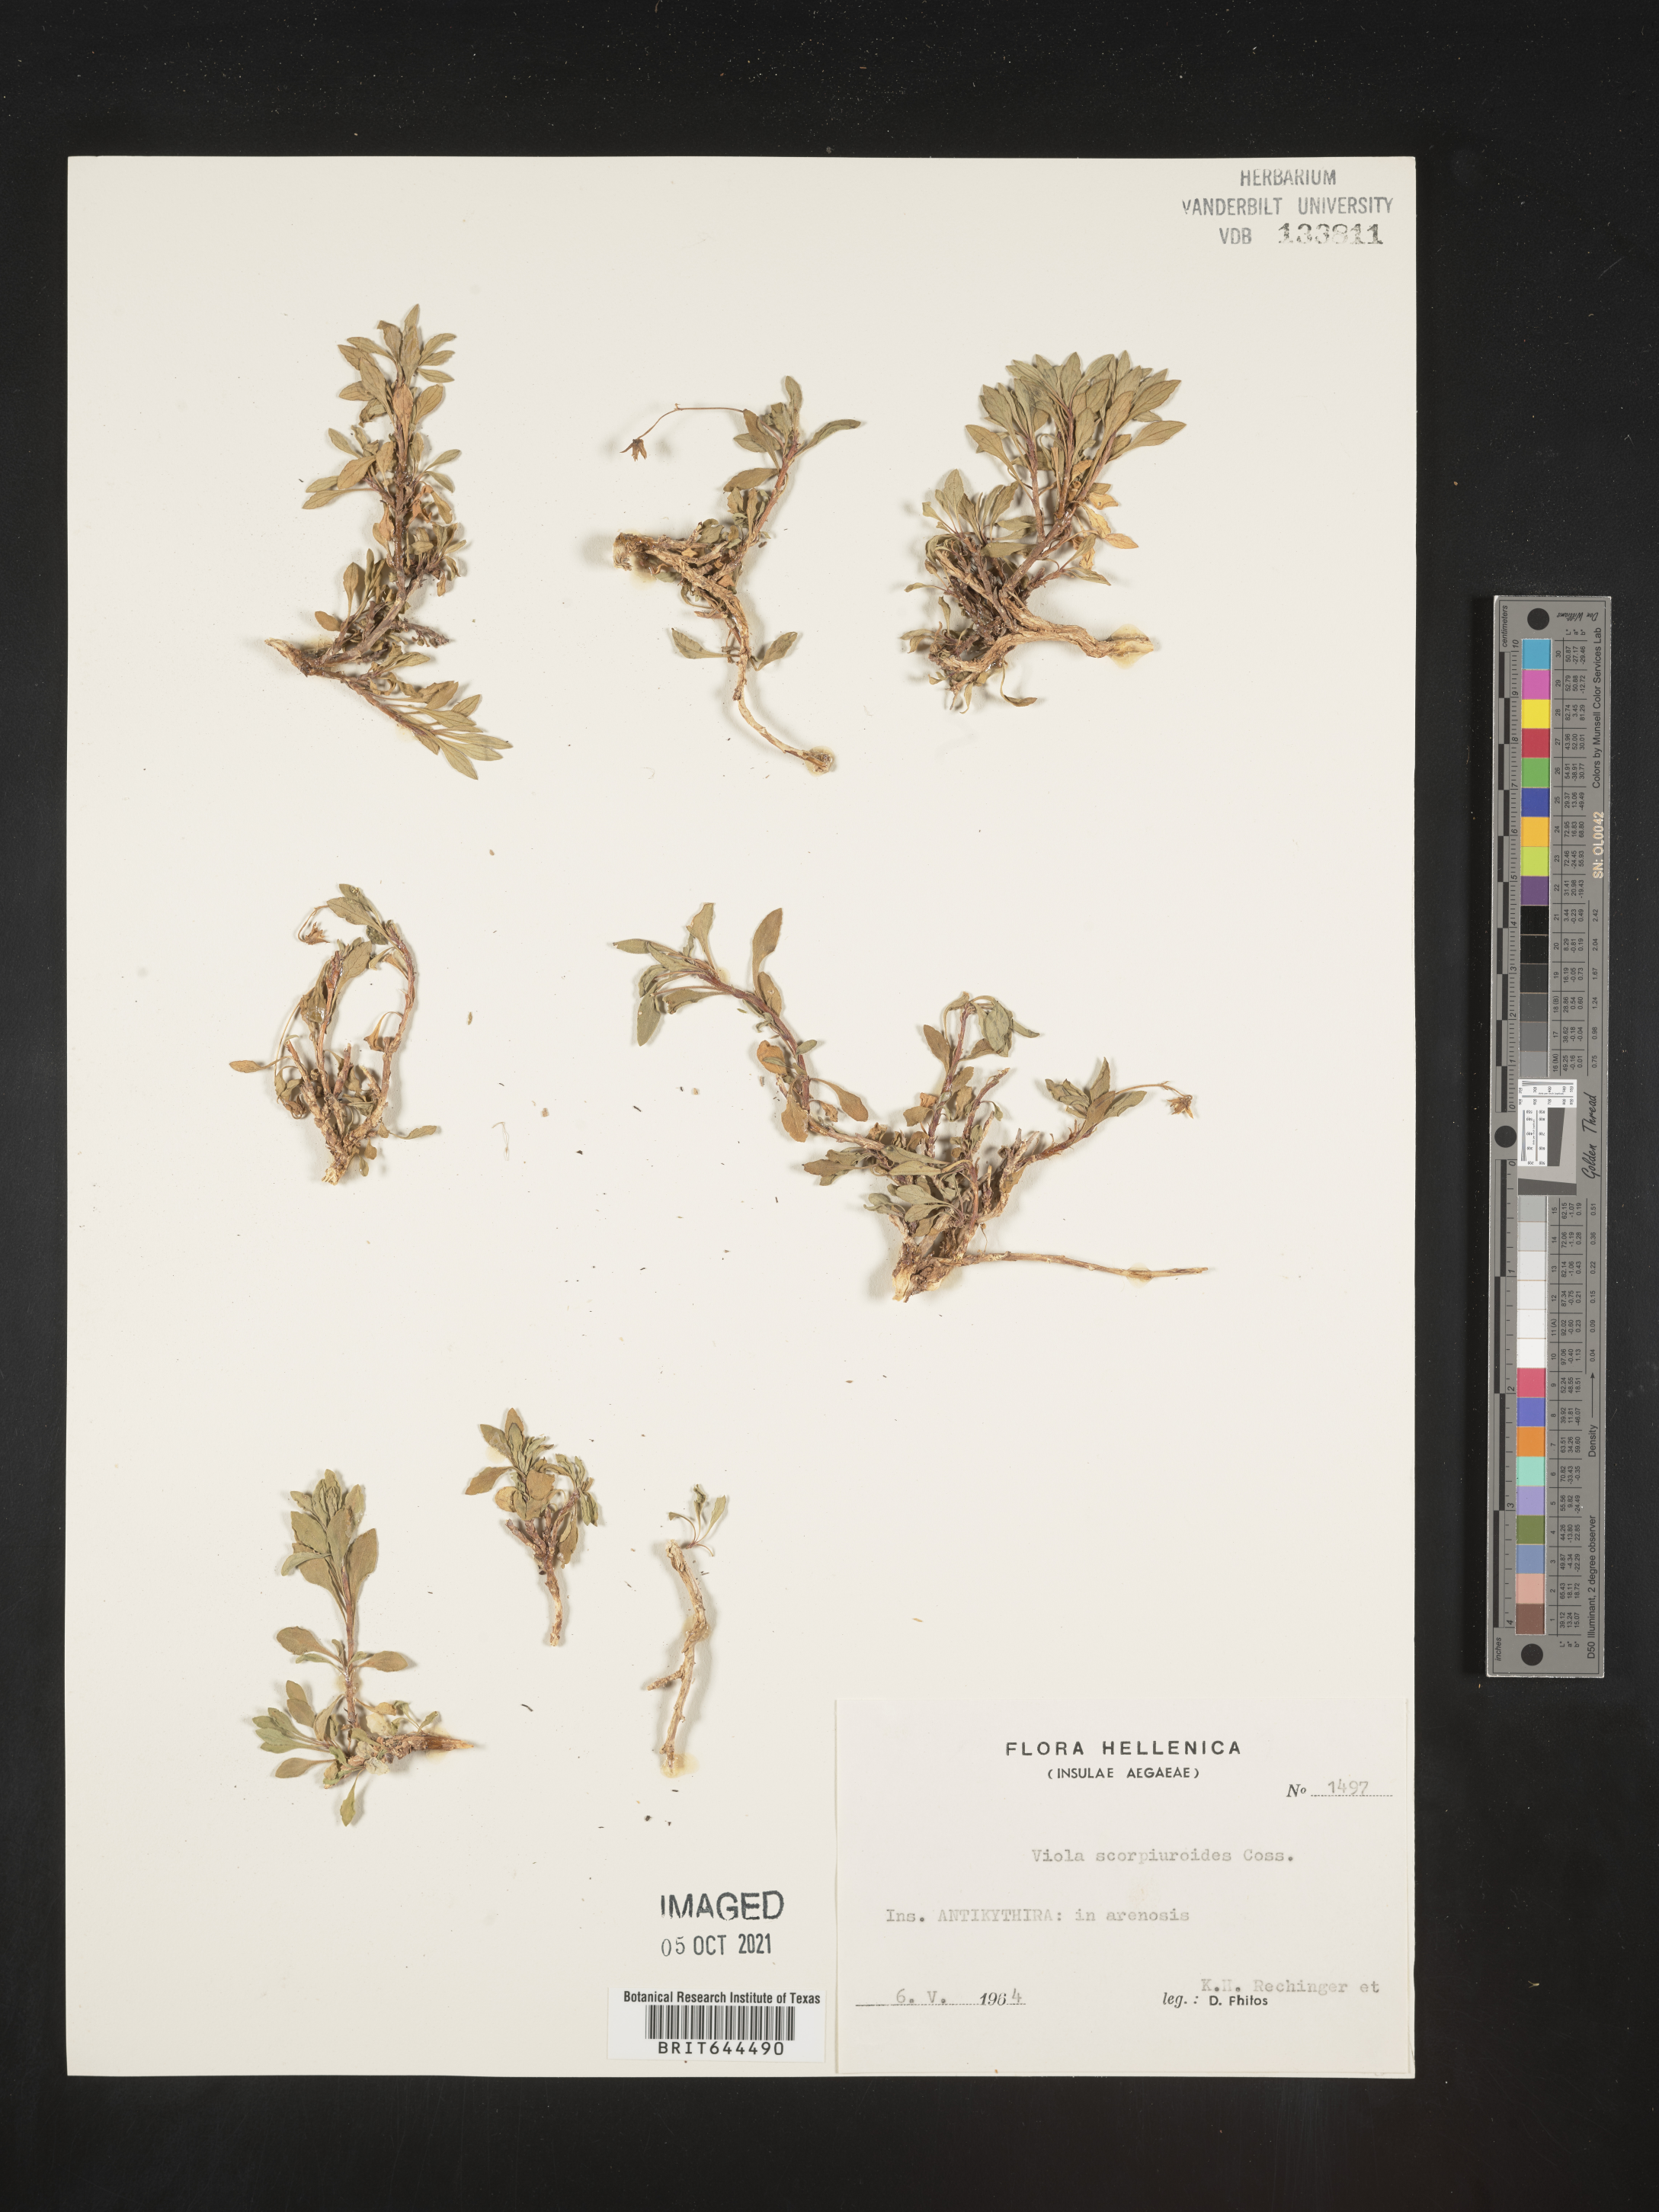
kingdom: Plantae
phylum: Tracheophyta
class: Magnoliopsida
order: Malpighiales
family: Violaceae
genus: Viola
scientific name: Viola
